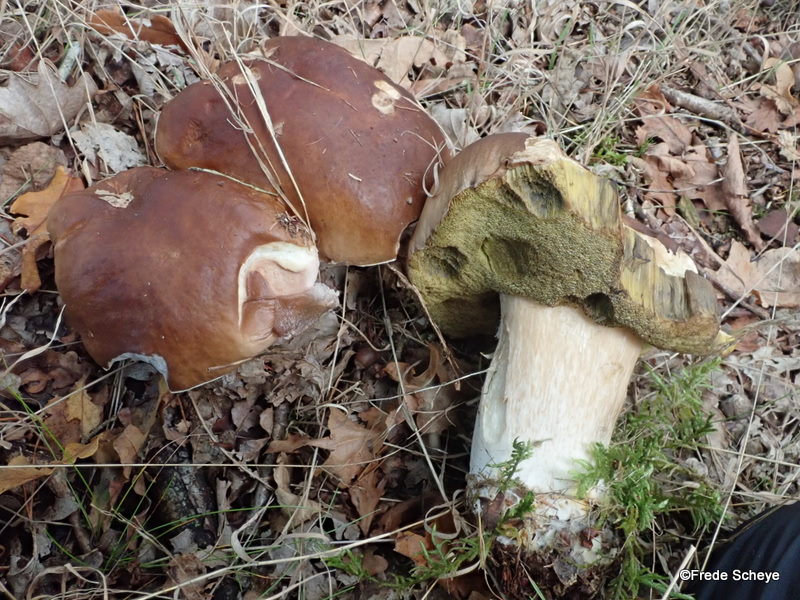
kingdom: Fungi
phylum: Basidiomycota
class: Agaricomycetes
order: Boletales
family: Boletaceae
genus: Boletus
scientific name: Boletus edulis
